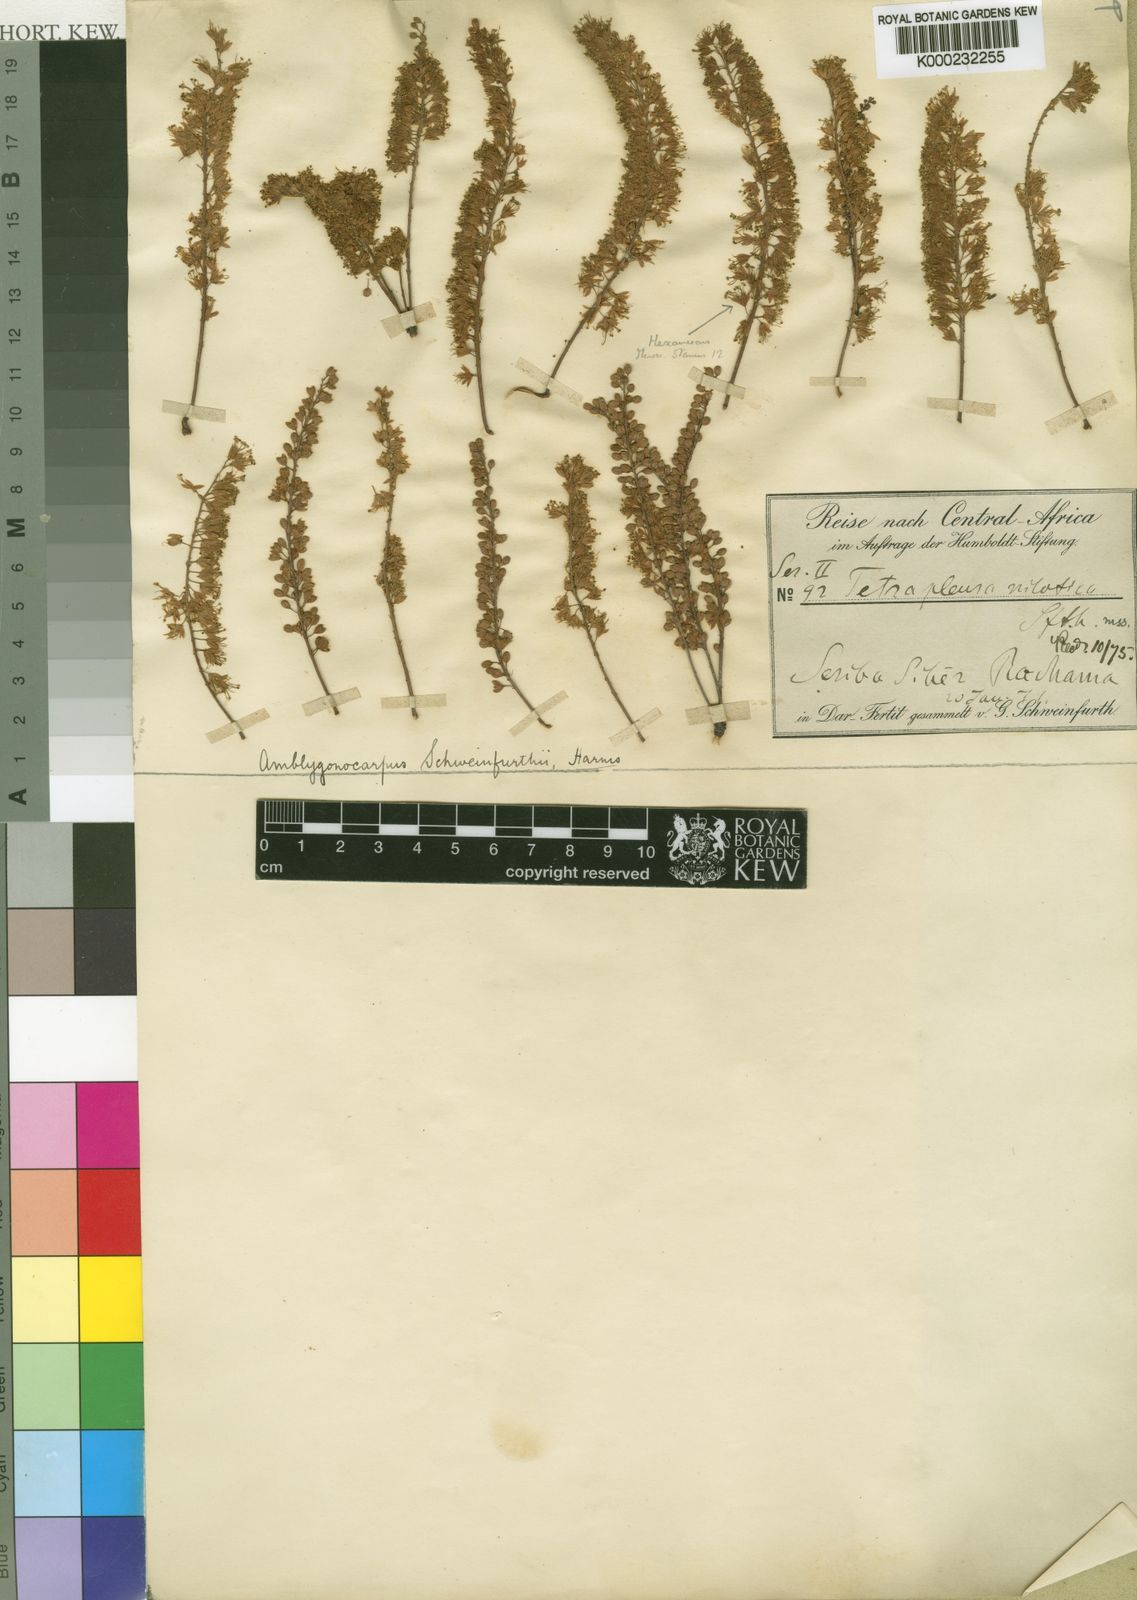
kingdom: Plantae
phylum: Tracheophyta
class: Magnoliopsida
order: Fabales
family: Fabaceae
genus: Amblygonocarpus
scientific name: Amblygonocarpus andongensis
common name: Bangawanga
